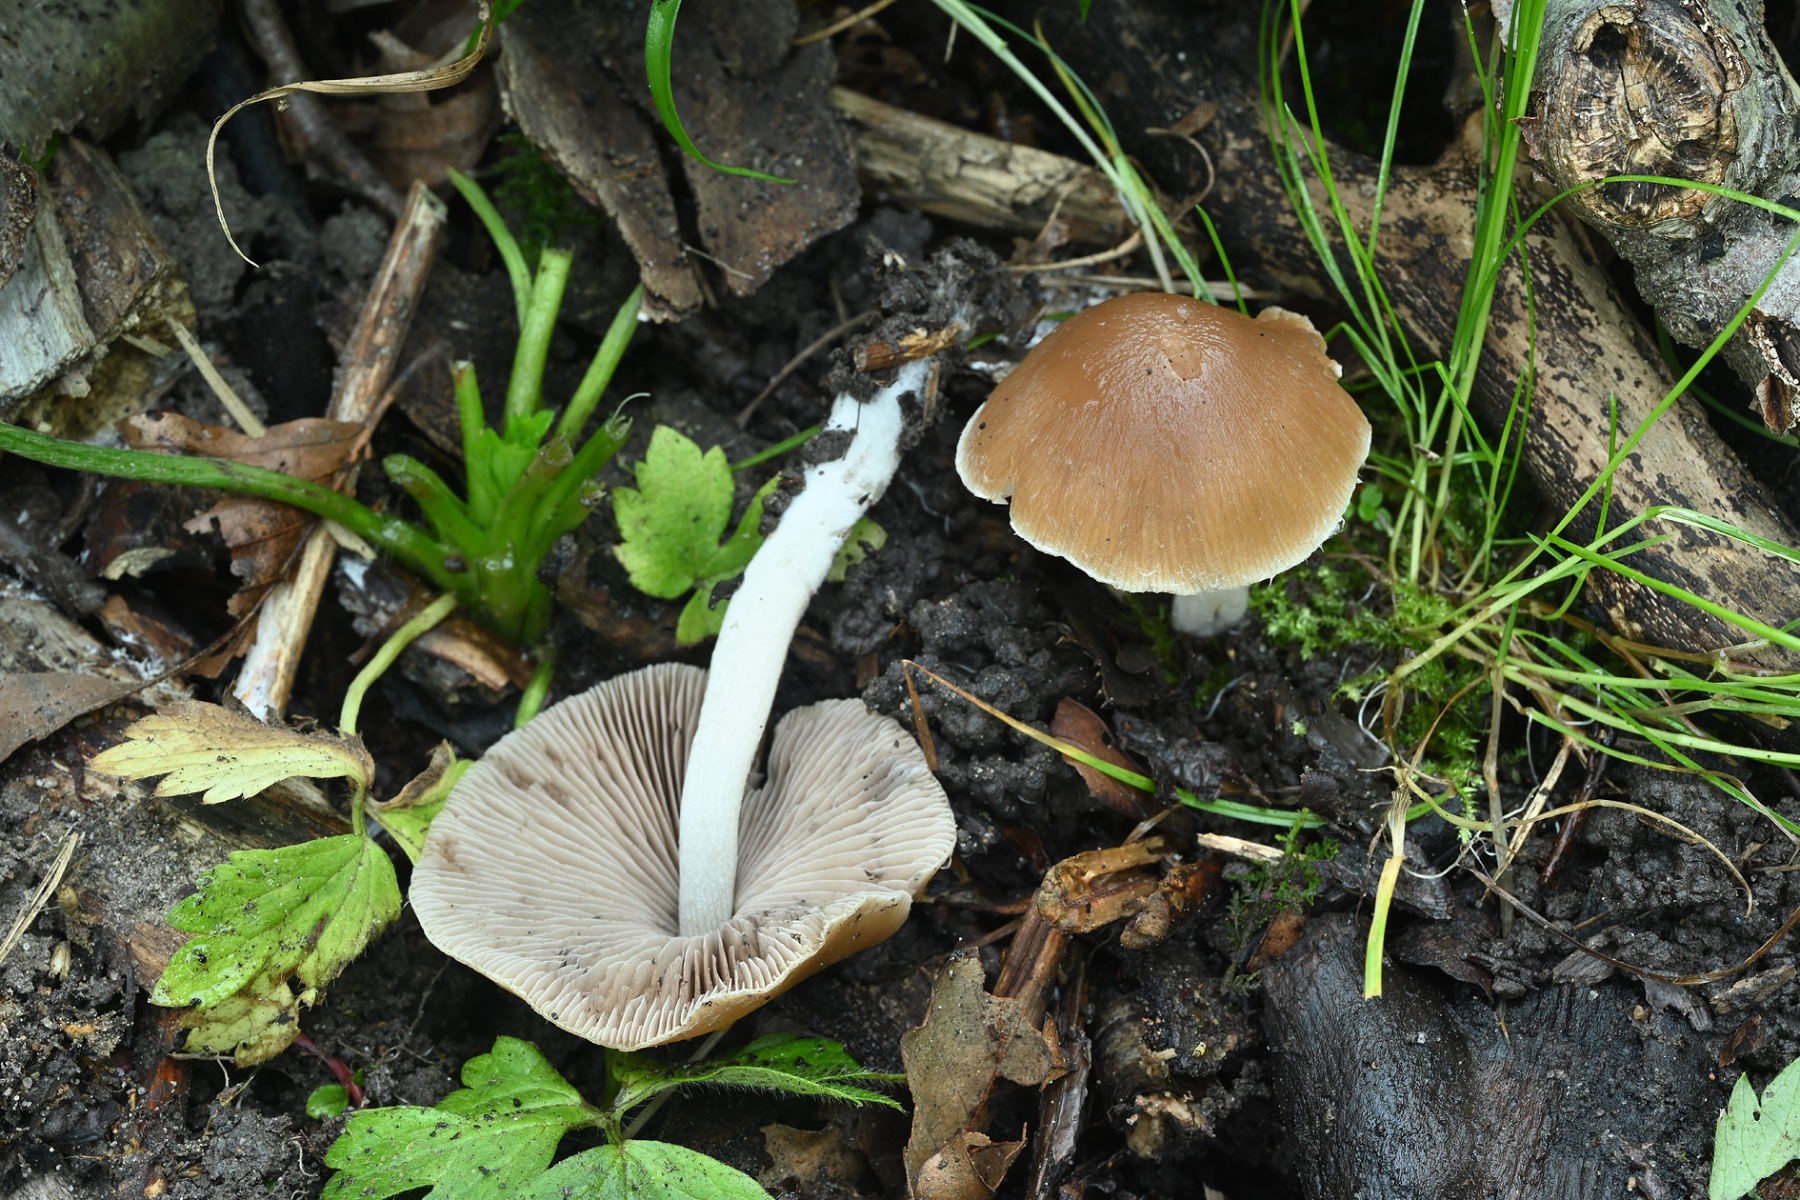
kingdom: Fungi
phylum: Basidiomycota
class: Agaricomycetes
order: Agaricales
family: Psathyrellaceae
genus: Psathyrella
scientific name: Psathyrella spadiceogrisea
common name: gråbrun mørkhat
